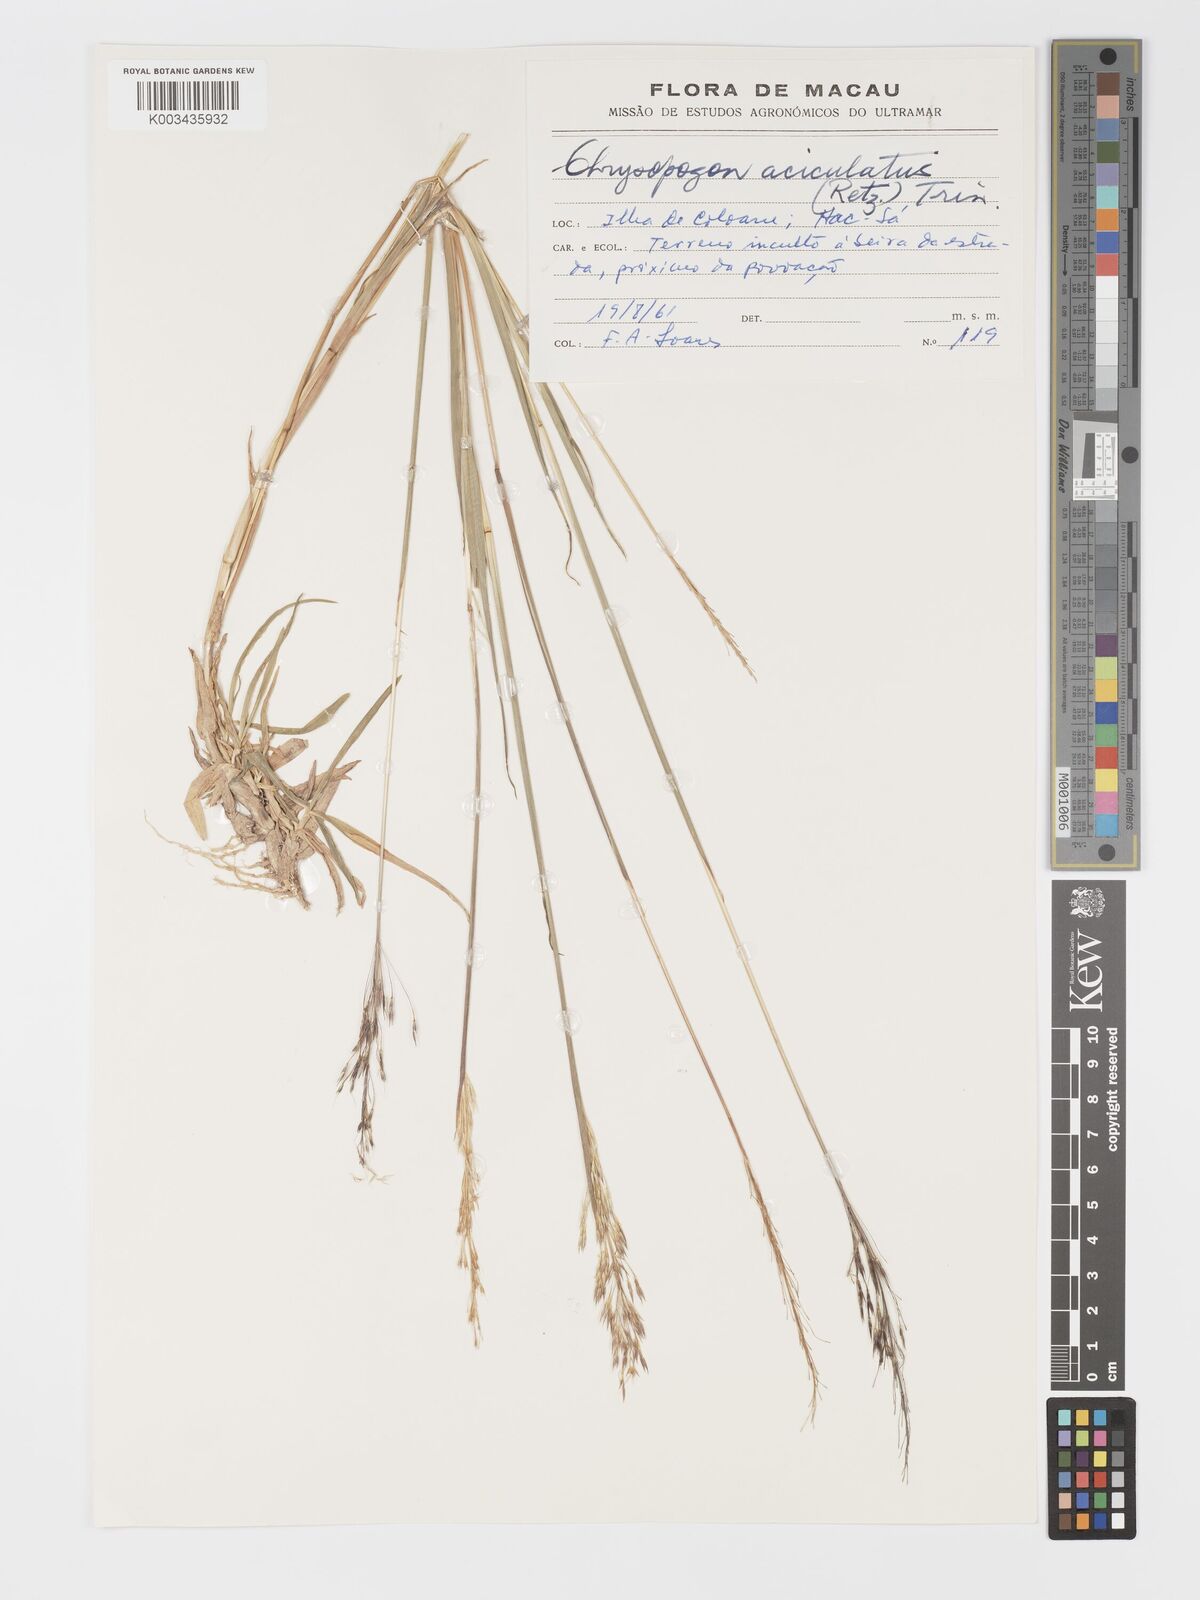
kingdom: Plantae
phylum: Tracheophyta
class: Liliopsida
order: Poales
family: Poaceae
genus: Chrysopogon
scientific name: Chrysopogon aciculatus
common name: Pilipiliula
